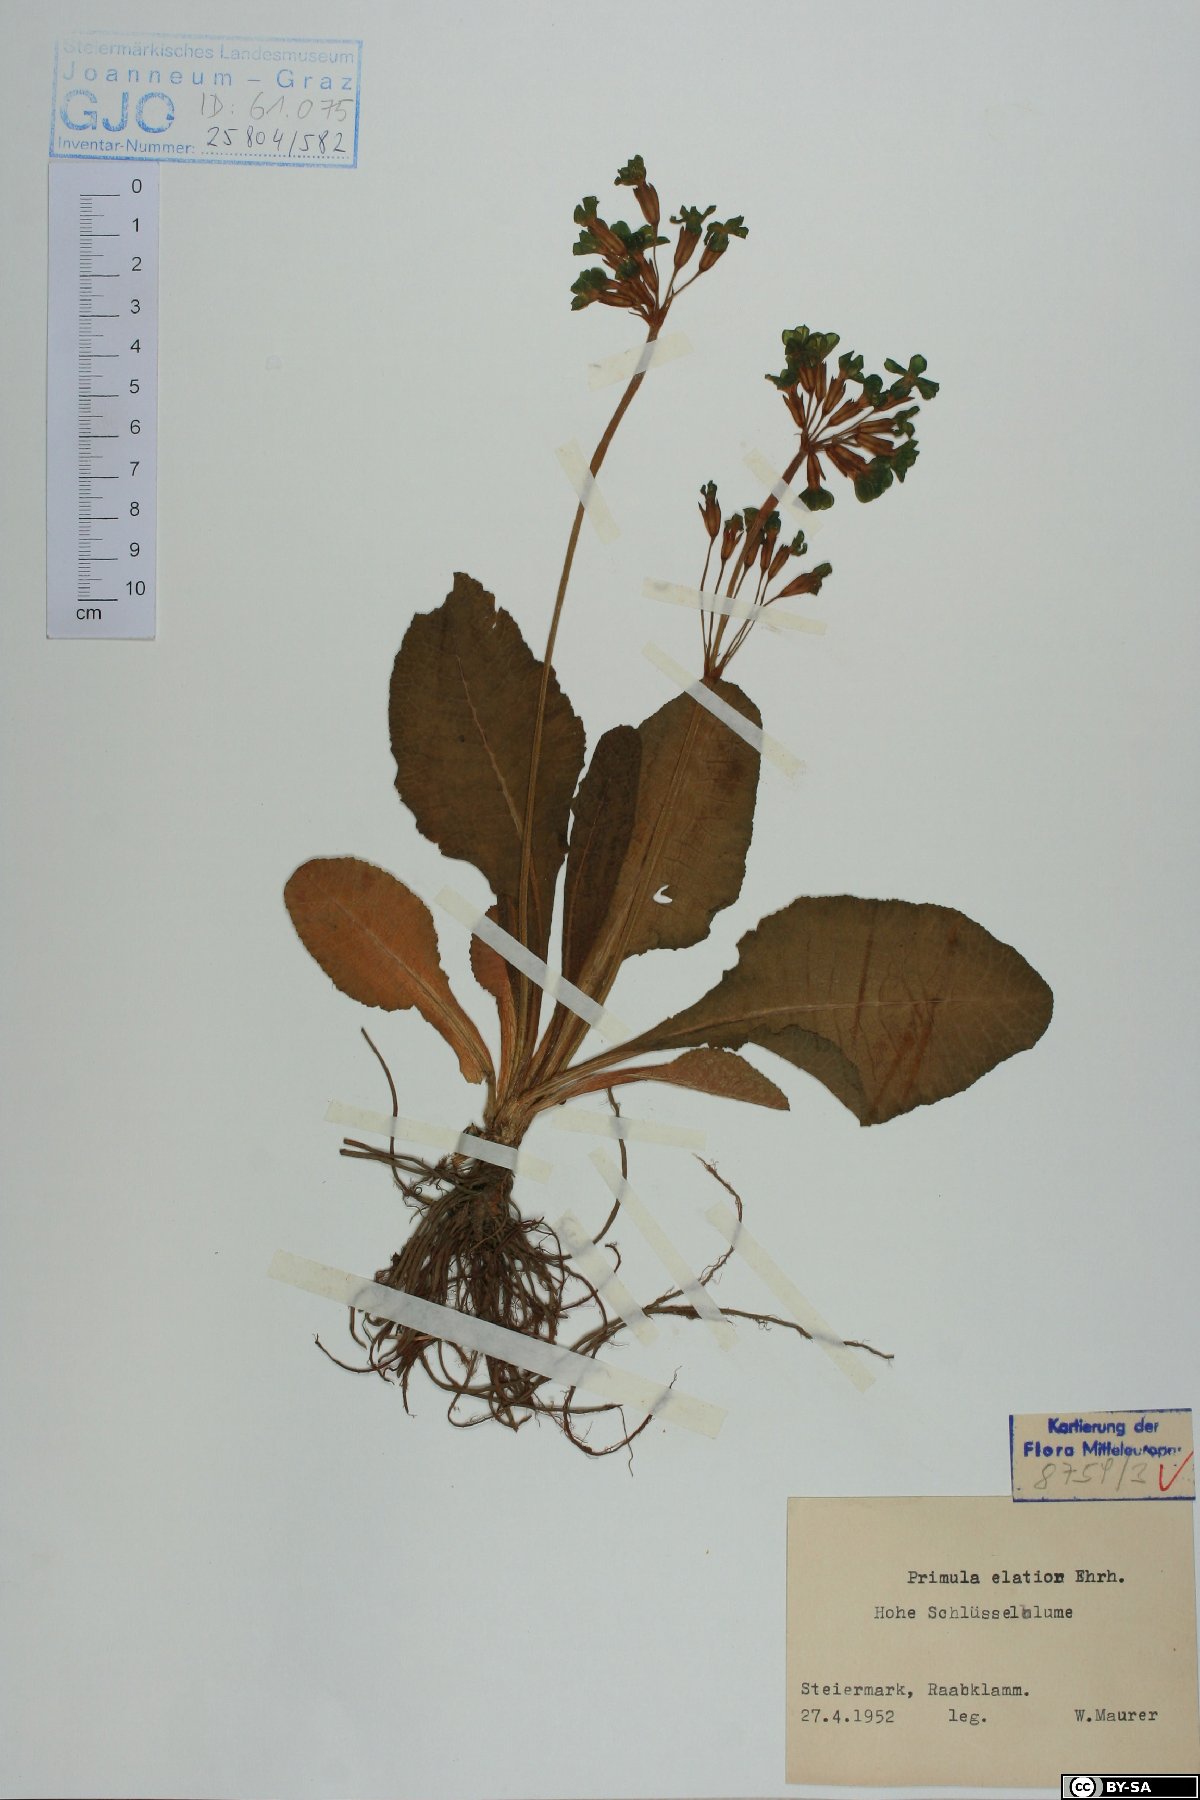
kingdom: Plantae
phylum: Tracheophyta
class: Magnoliopsida
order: Ericales
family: Primulaceae
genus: Primula
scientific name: Primula elatior
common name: Oxlip
